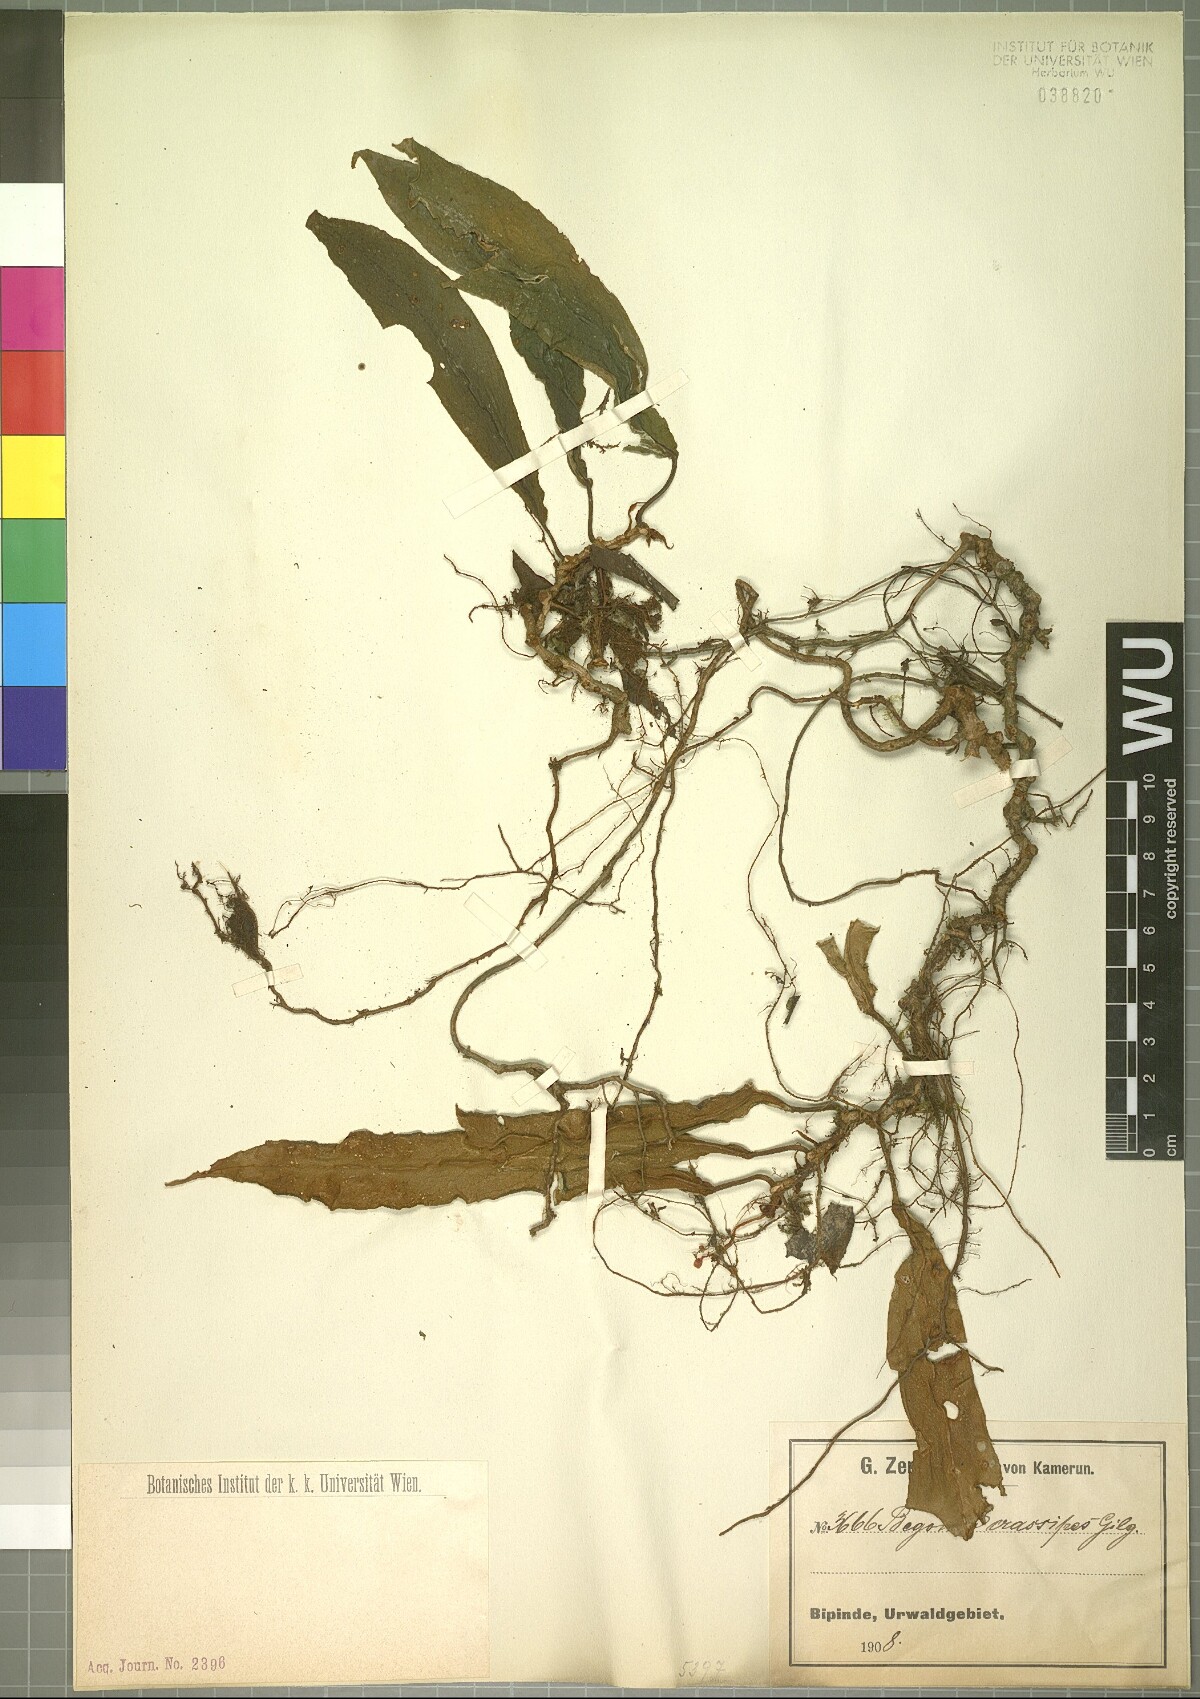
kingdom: Plantae
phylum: Tracheophyta
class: Magnoliopsida
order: Cucurbitales
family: Begoniaceae
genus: Begonia
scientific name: Begonia longipetiolata
